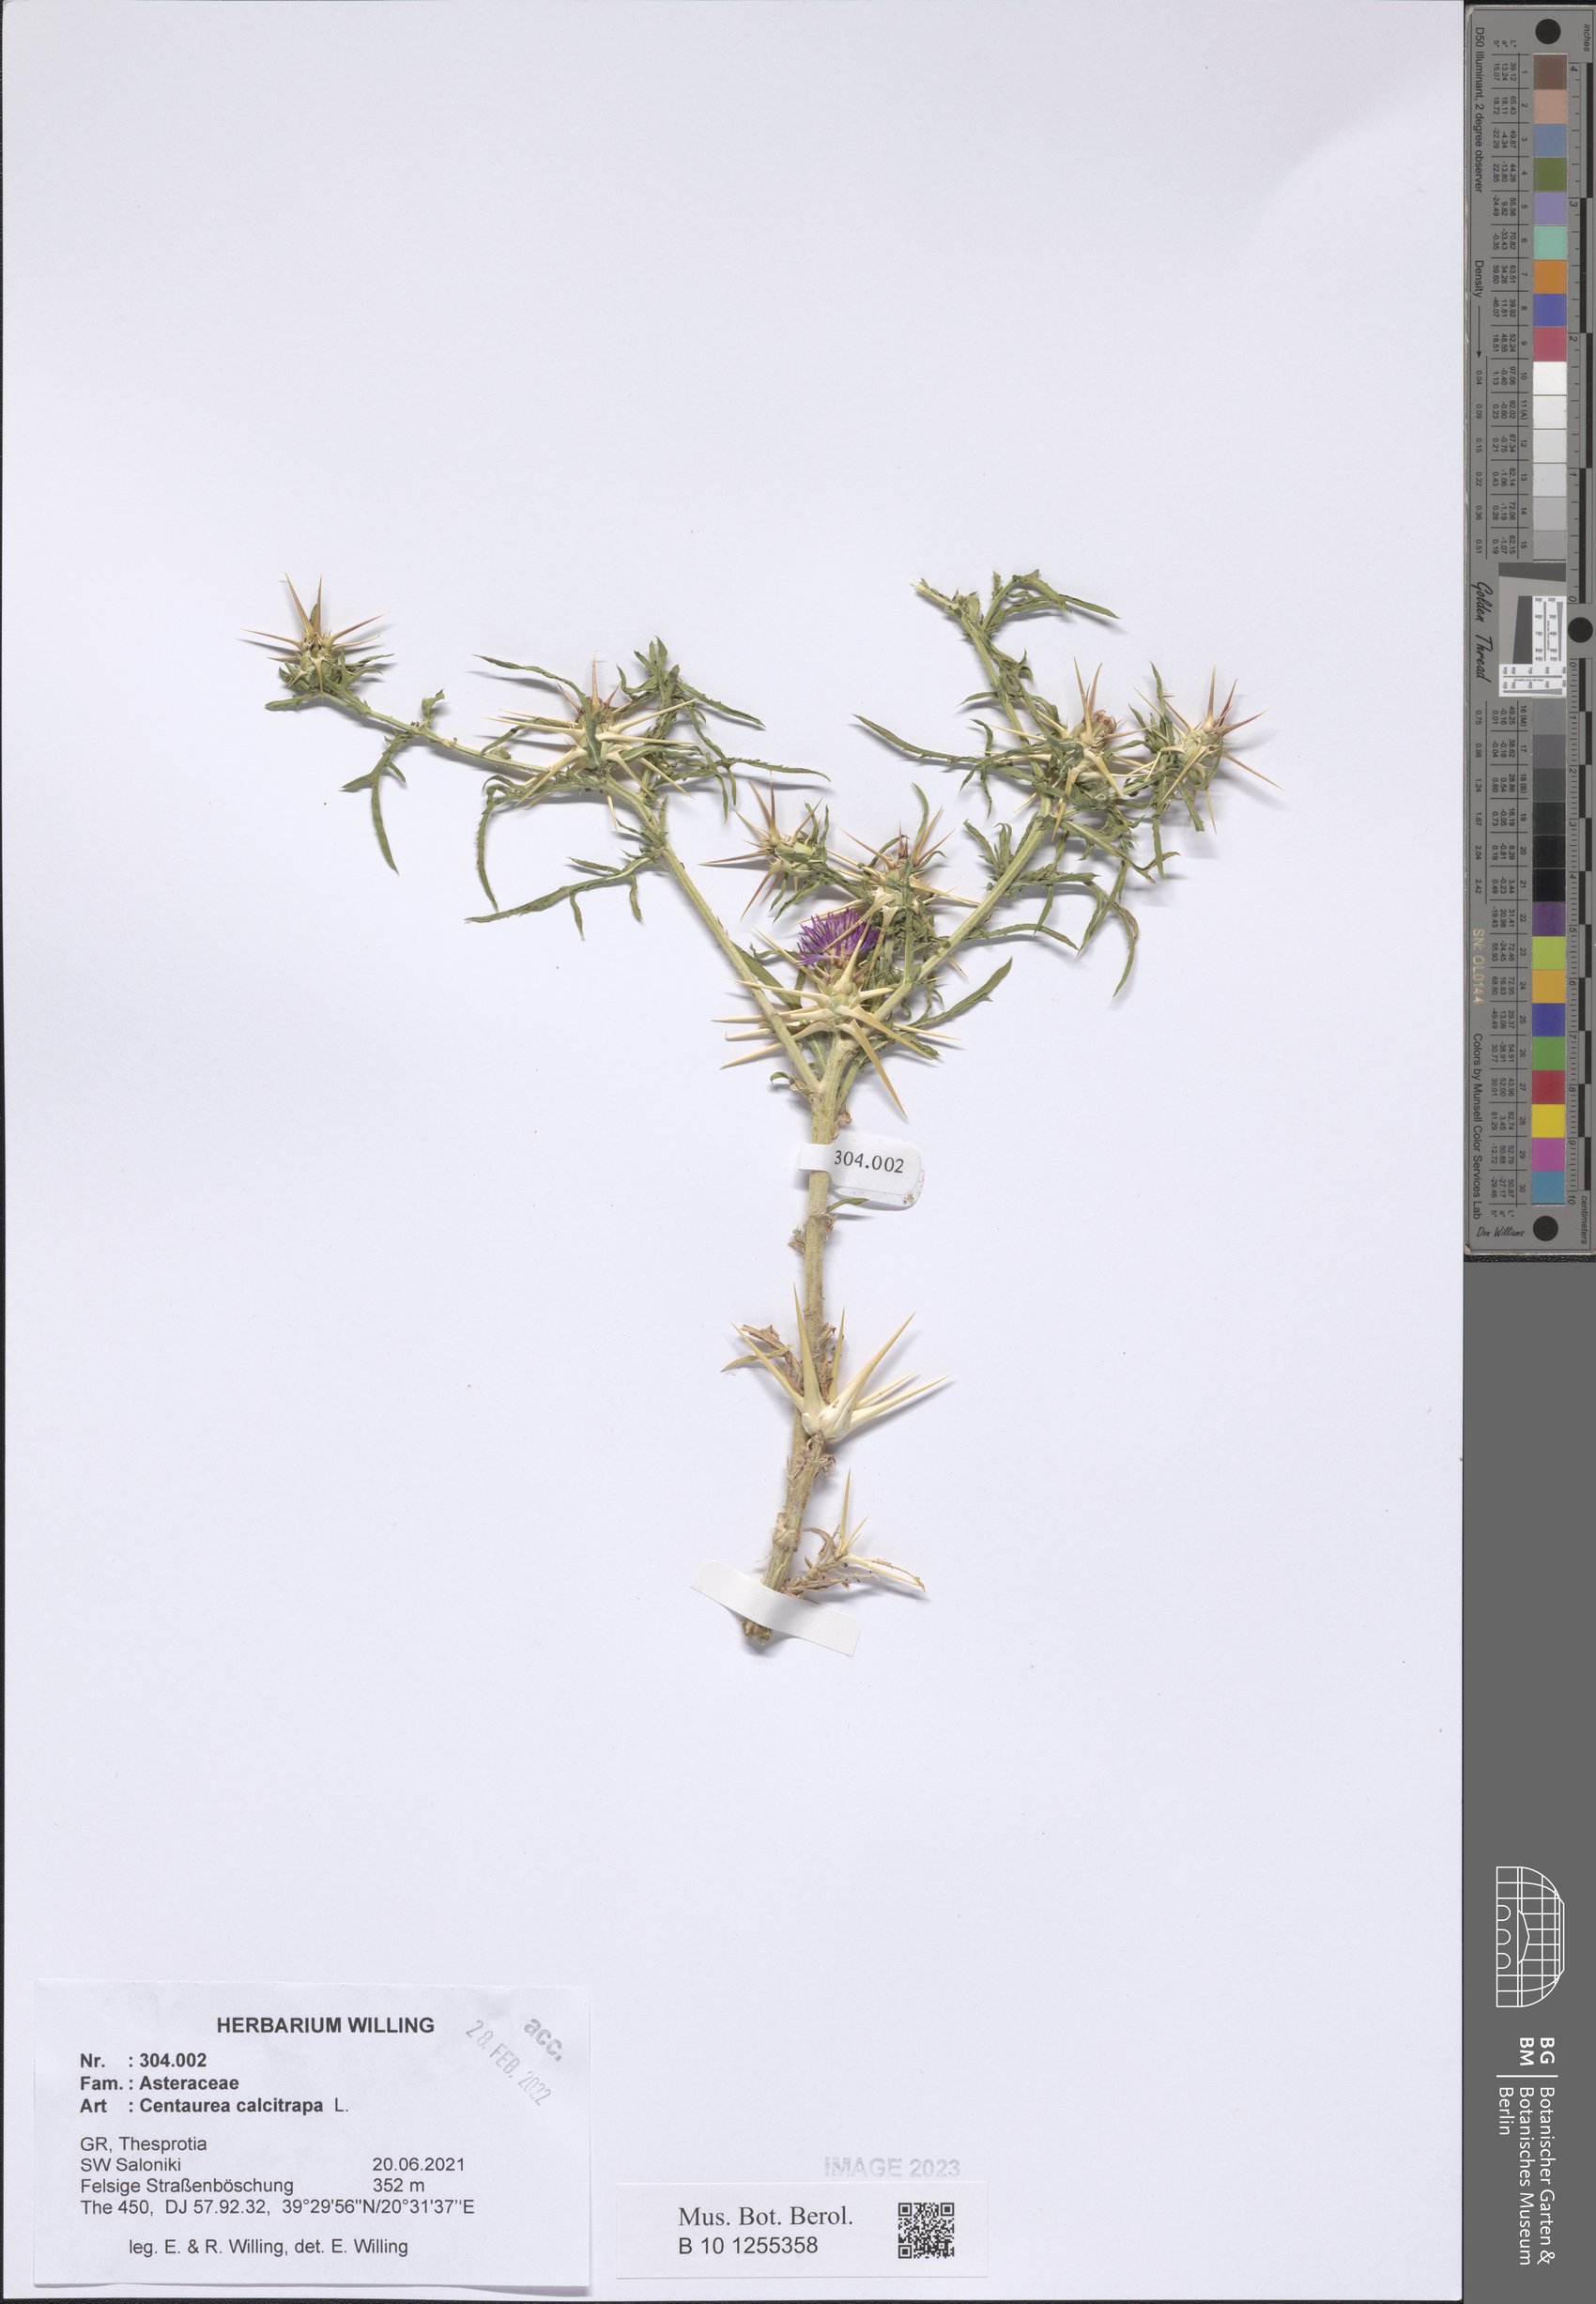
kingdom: Plantae
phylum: Tracheophyta
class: Magnoliopsida
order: Asterales
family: Asteraceae
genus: Centaurea
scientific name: Centaurea calcitrapa
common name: Red star-thistle
